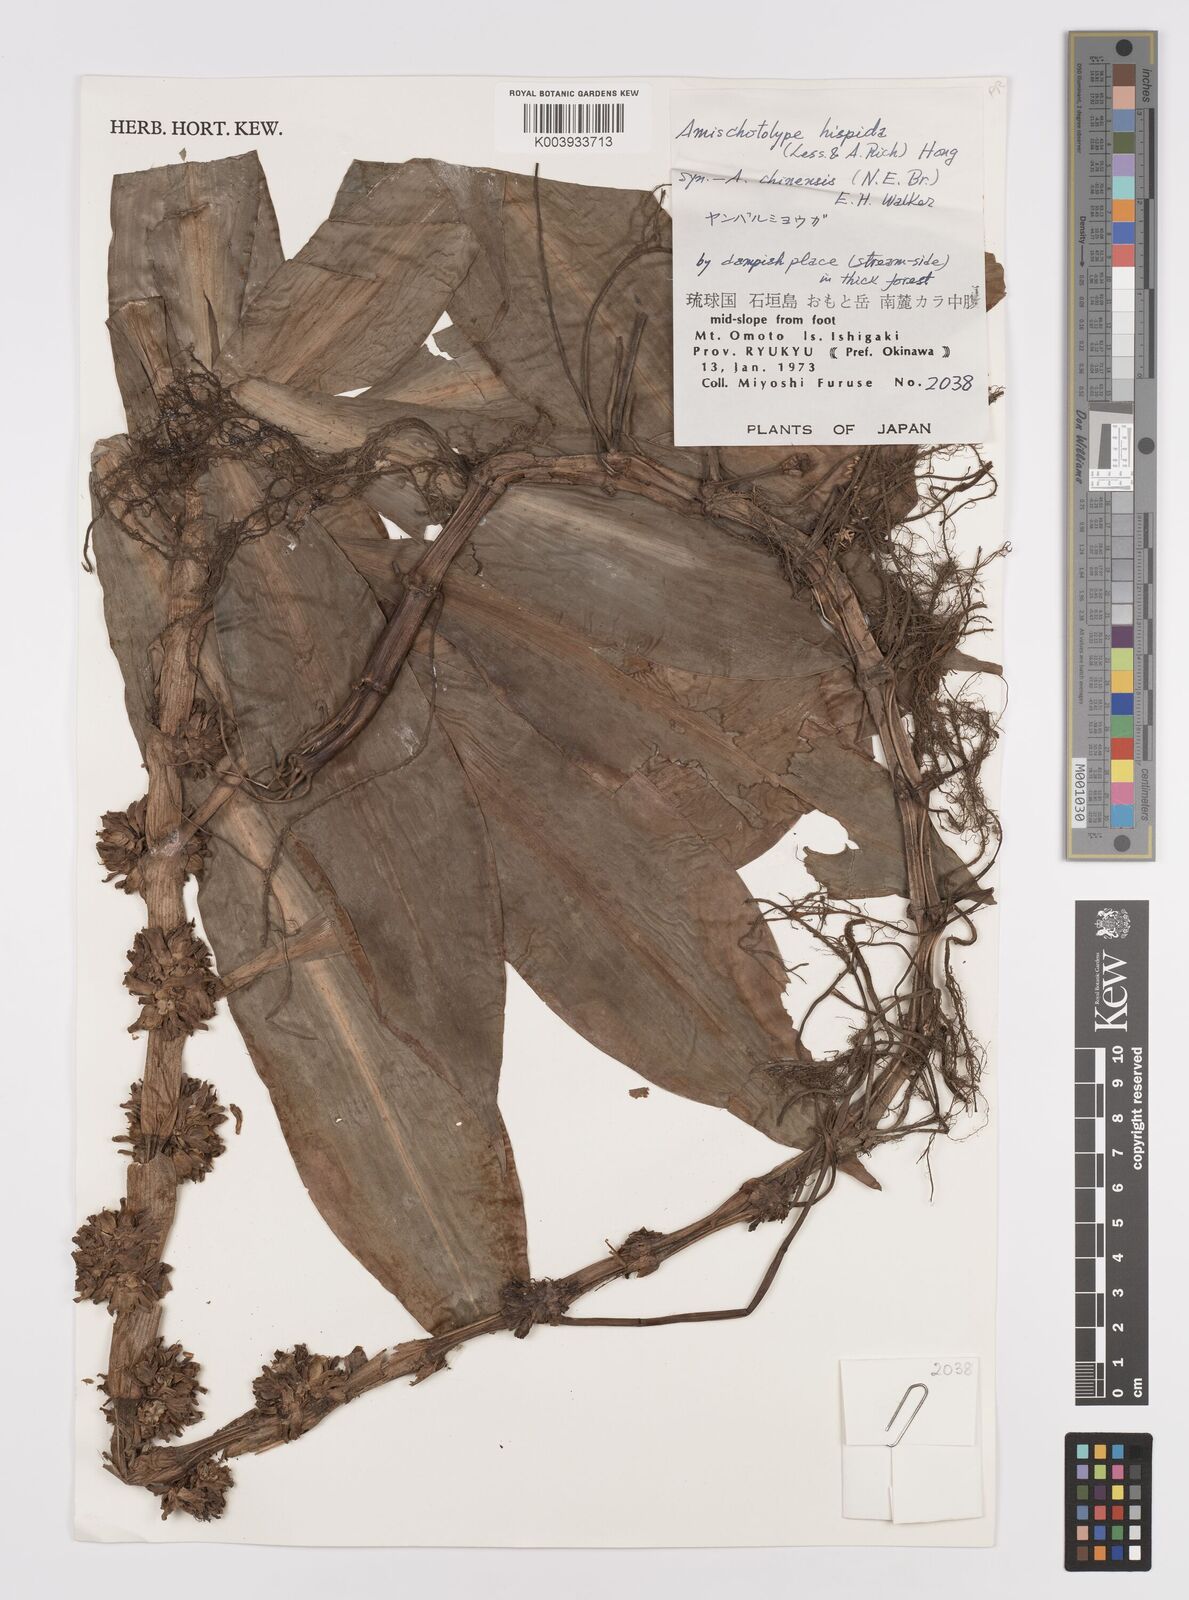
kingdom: Plantae
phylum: Tracheophyta
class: Liliopsida
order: Commelinales
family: Commelinaceae
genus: Amischotolype
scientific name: Amischotolype hispida
